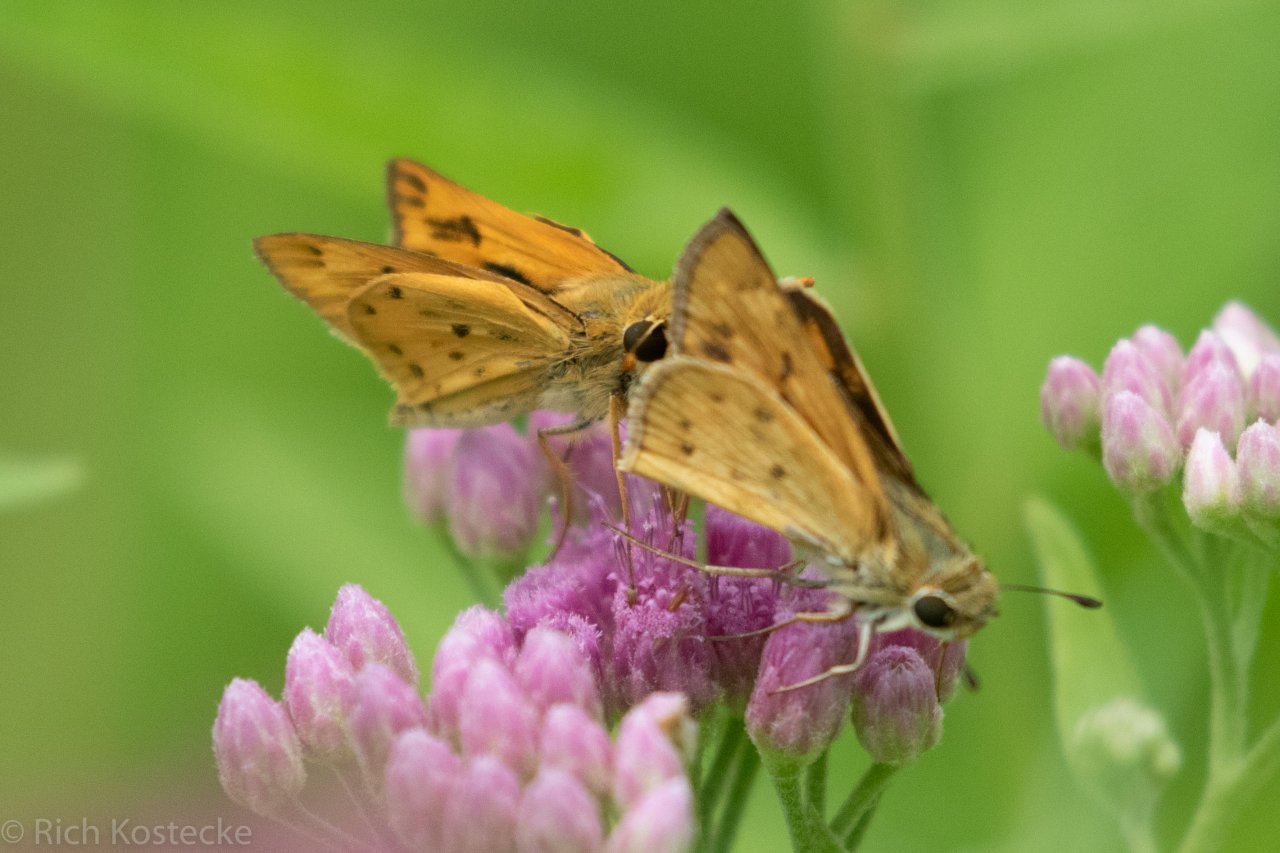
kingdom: Animalia
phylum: Arthropoda
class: Insecta
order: Lepidoptera
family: Hesperiidae
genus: Hylephila
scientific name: Hylephila phyleus
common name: Fiery Skipper
